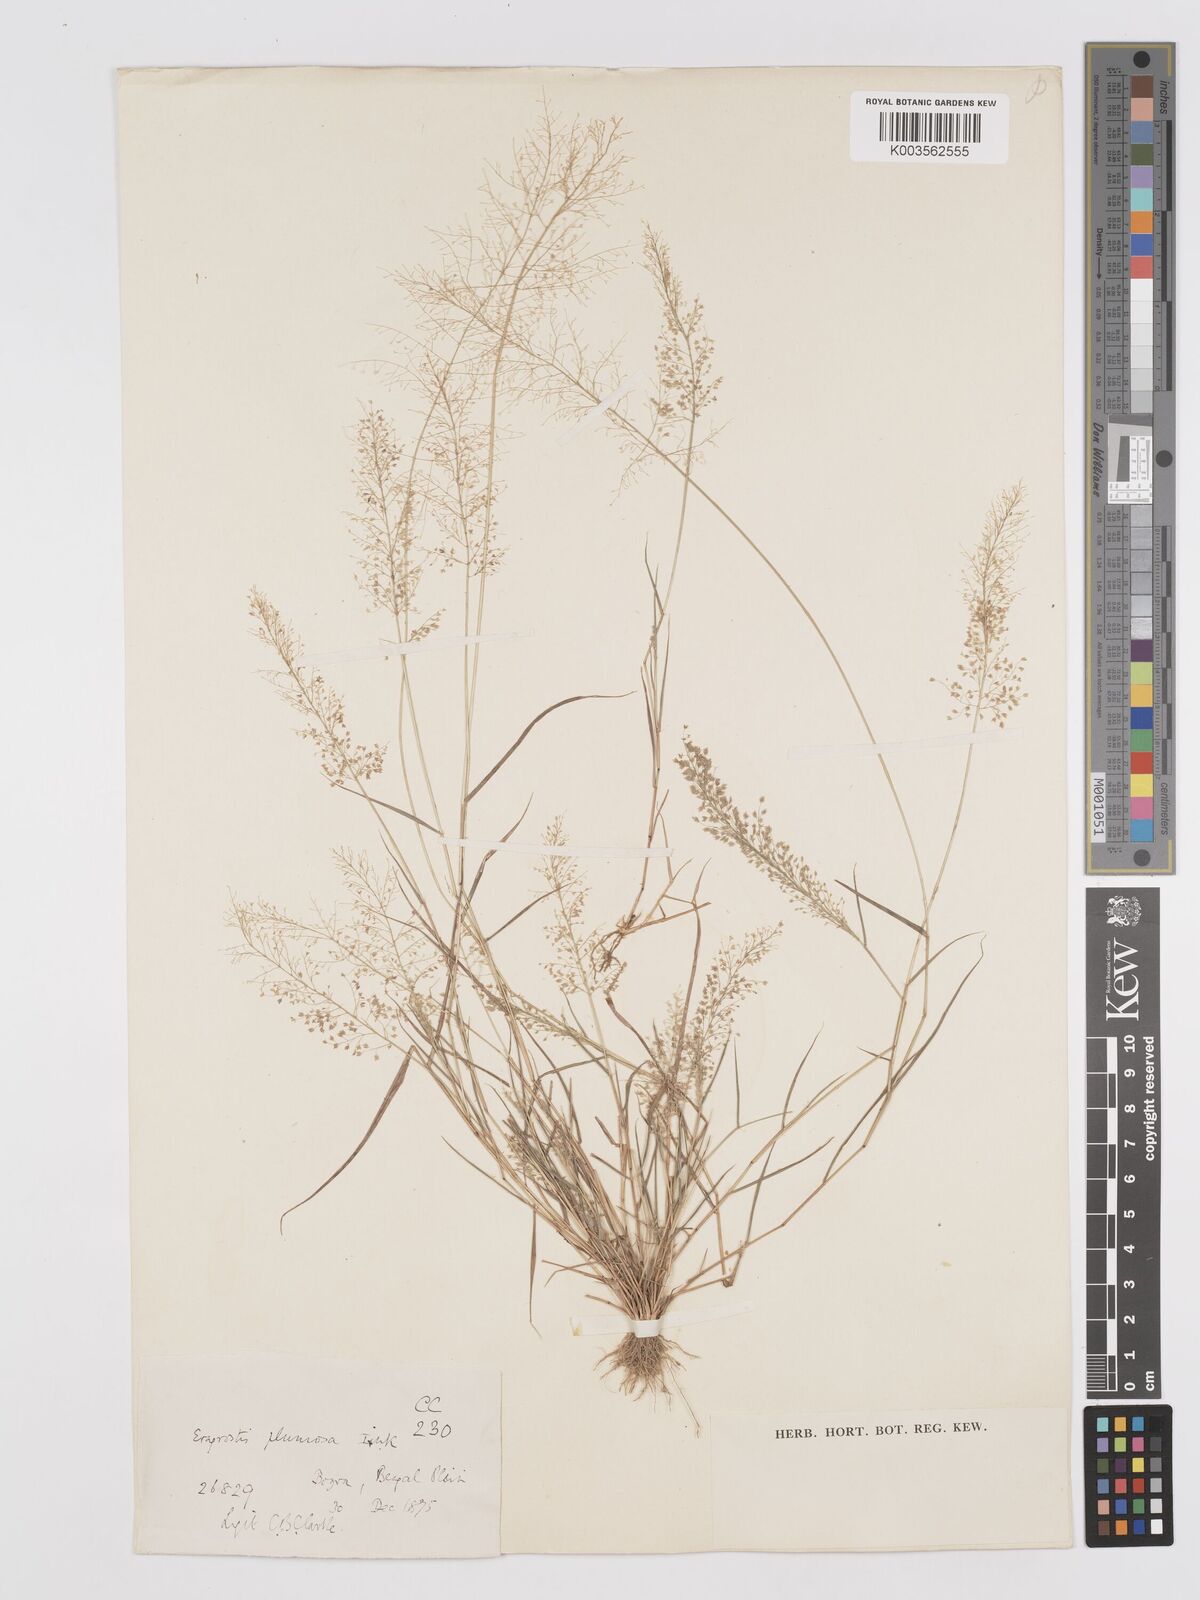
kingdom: Plantae
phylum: Tracheophyta
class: Liliopsida
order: Poales
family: Poaceae
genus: Eragrostis
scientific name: Eragrostis tenella
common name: Japanese lovegrass
